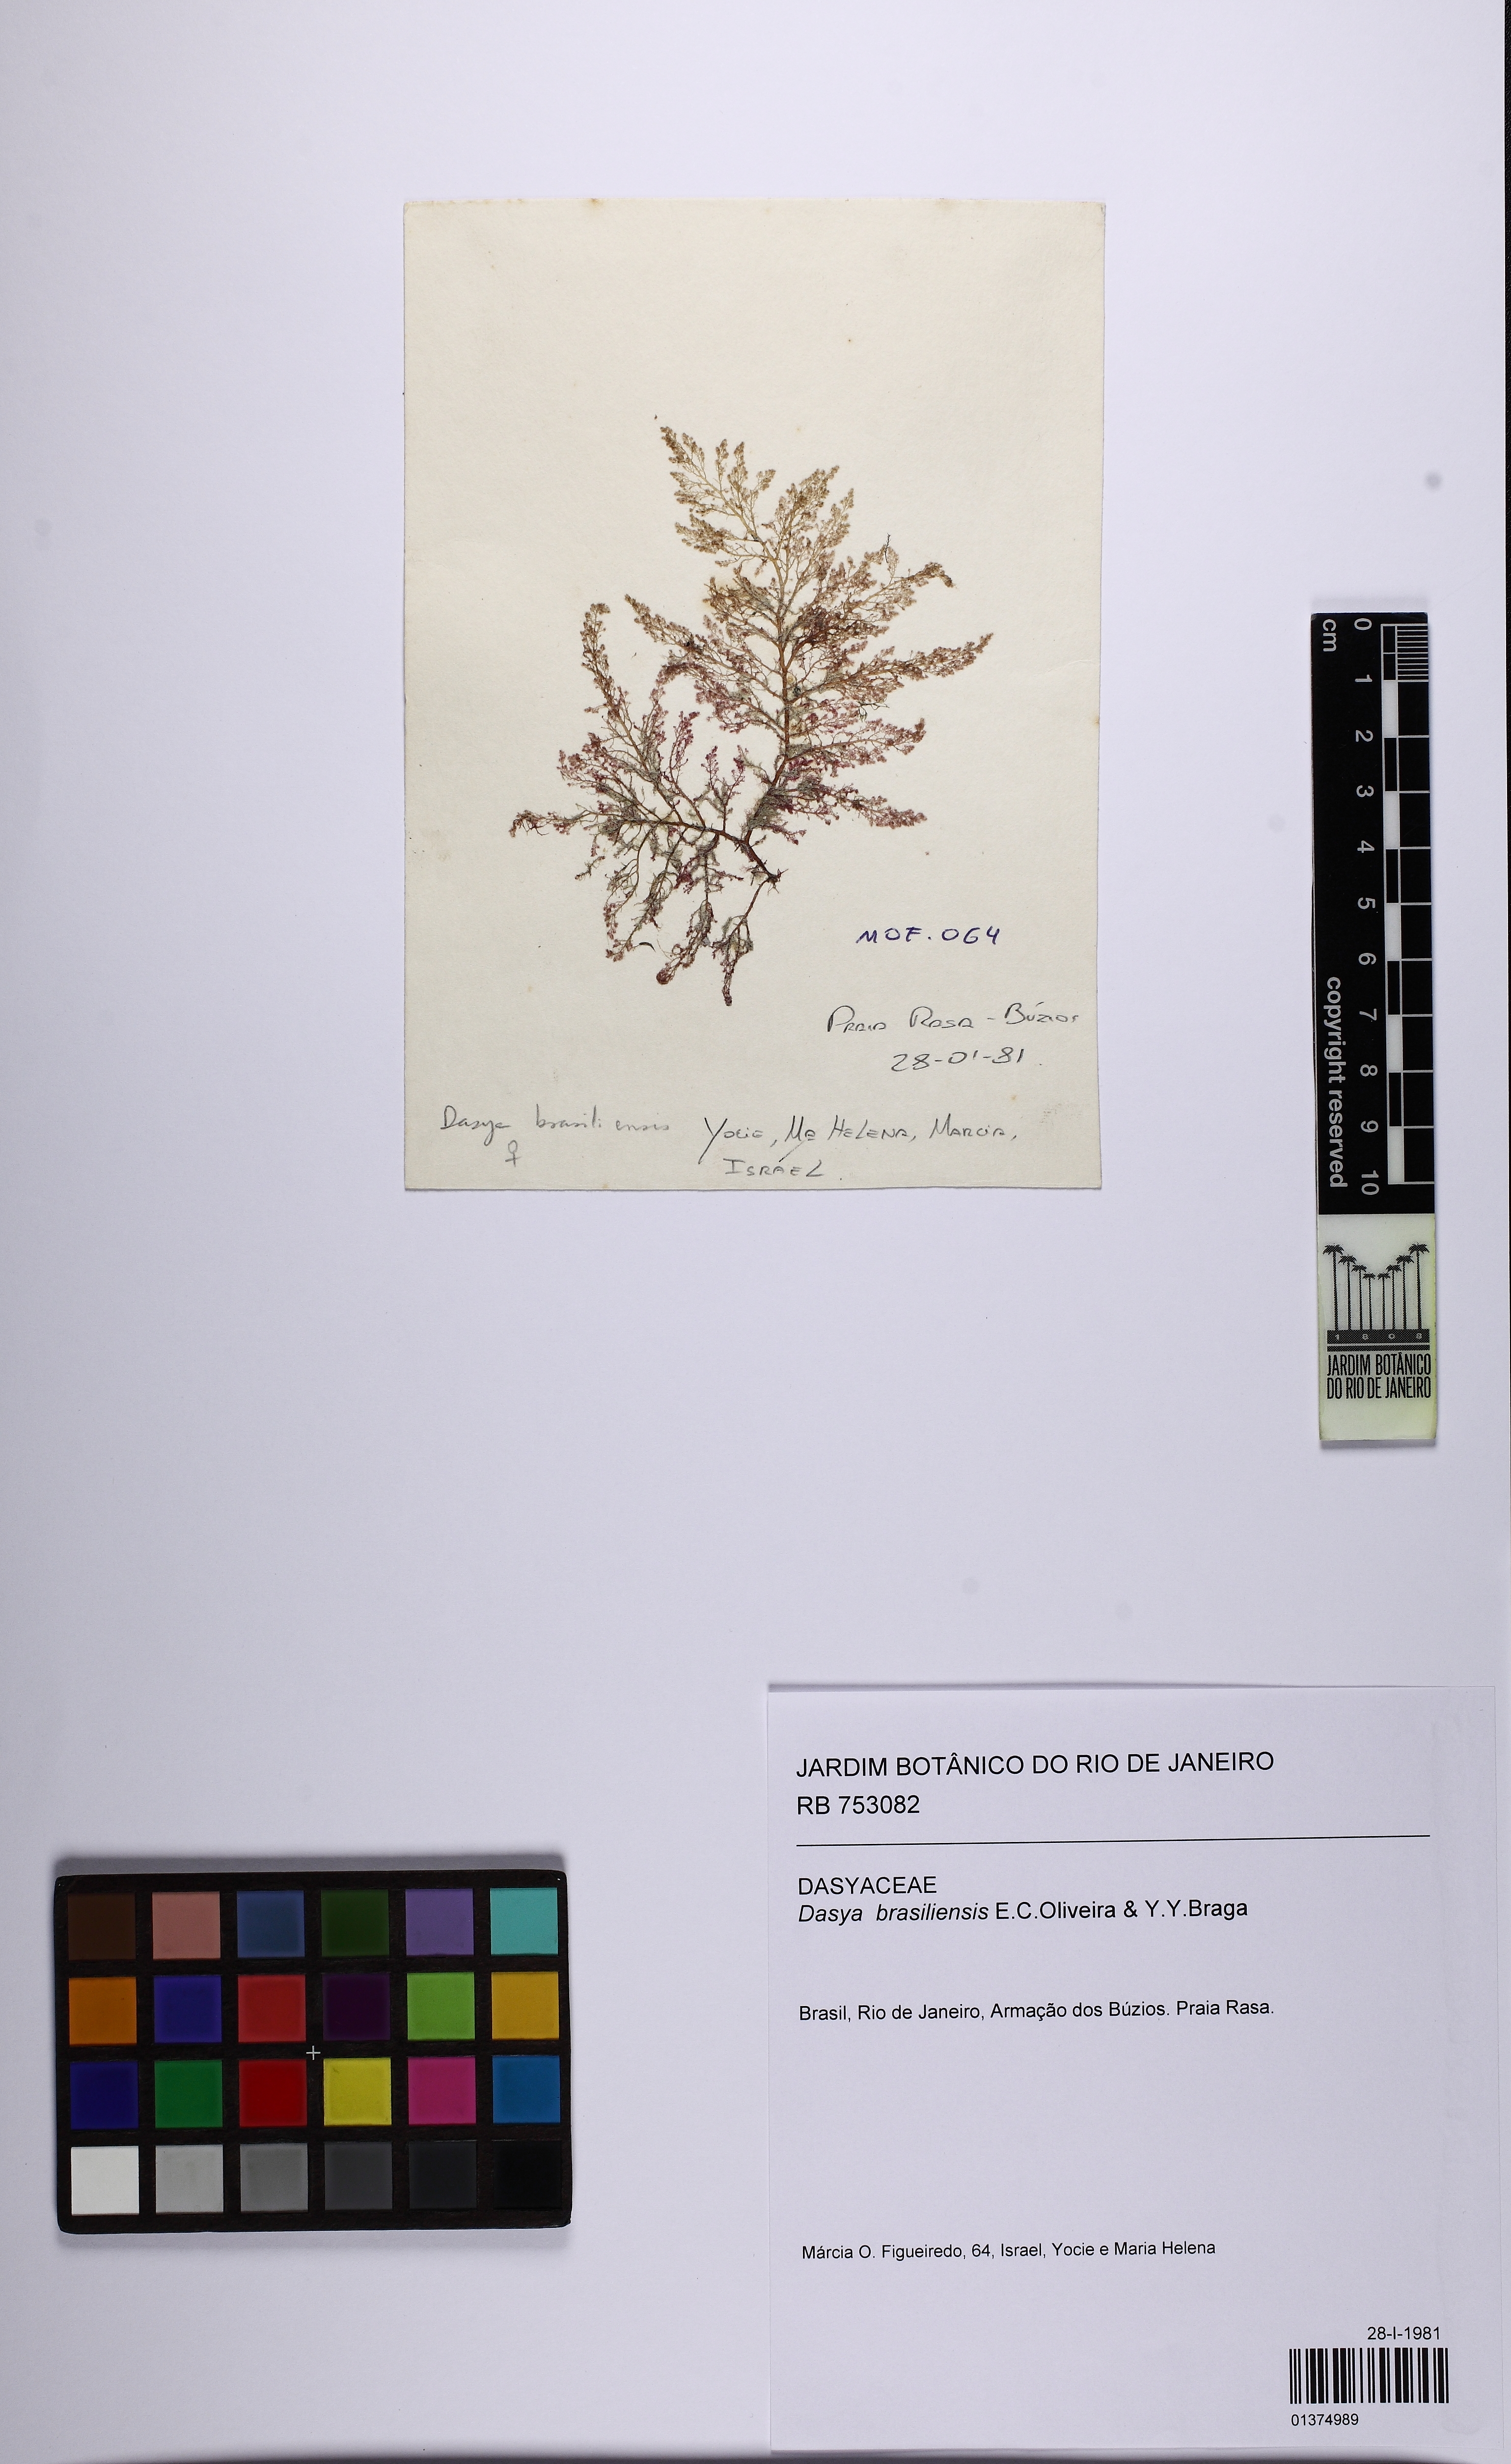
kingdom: Plantae
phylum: Rhodophyta
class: Florideophyceae
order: Ceramiales
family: Dasyaceae
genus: Dasya
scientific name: Dasya brasiliensis
